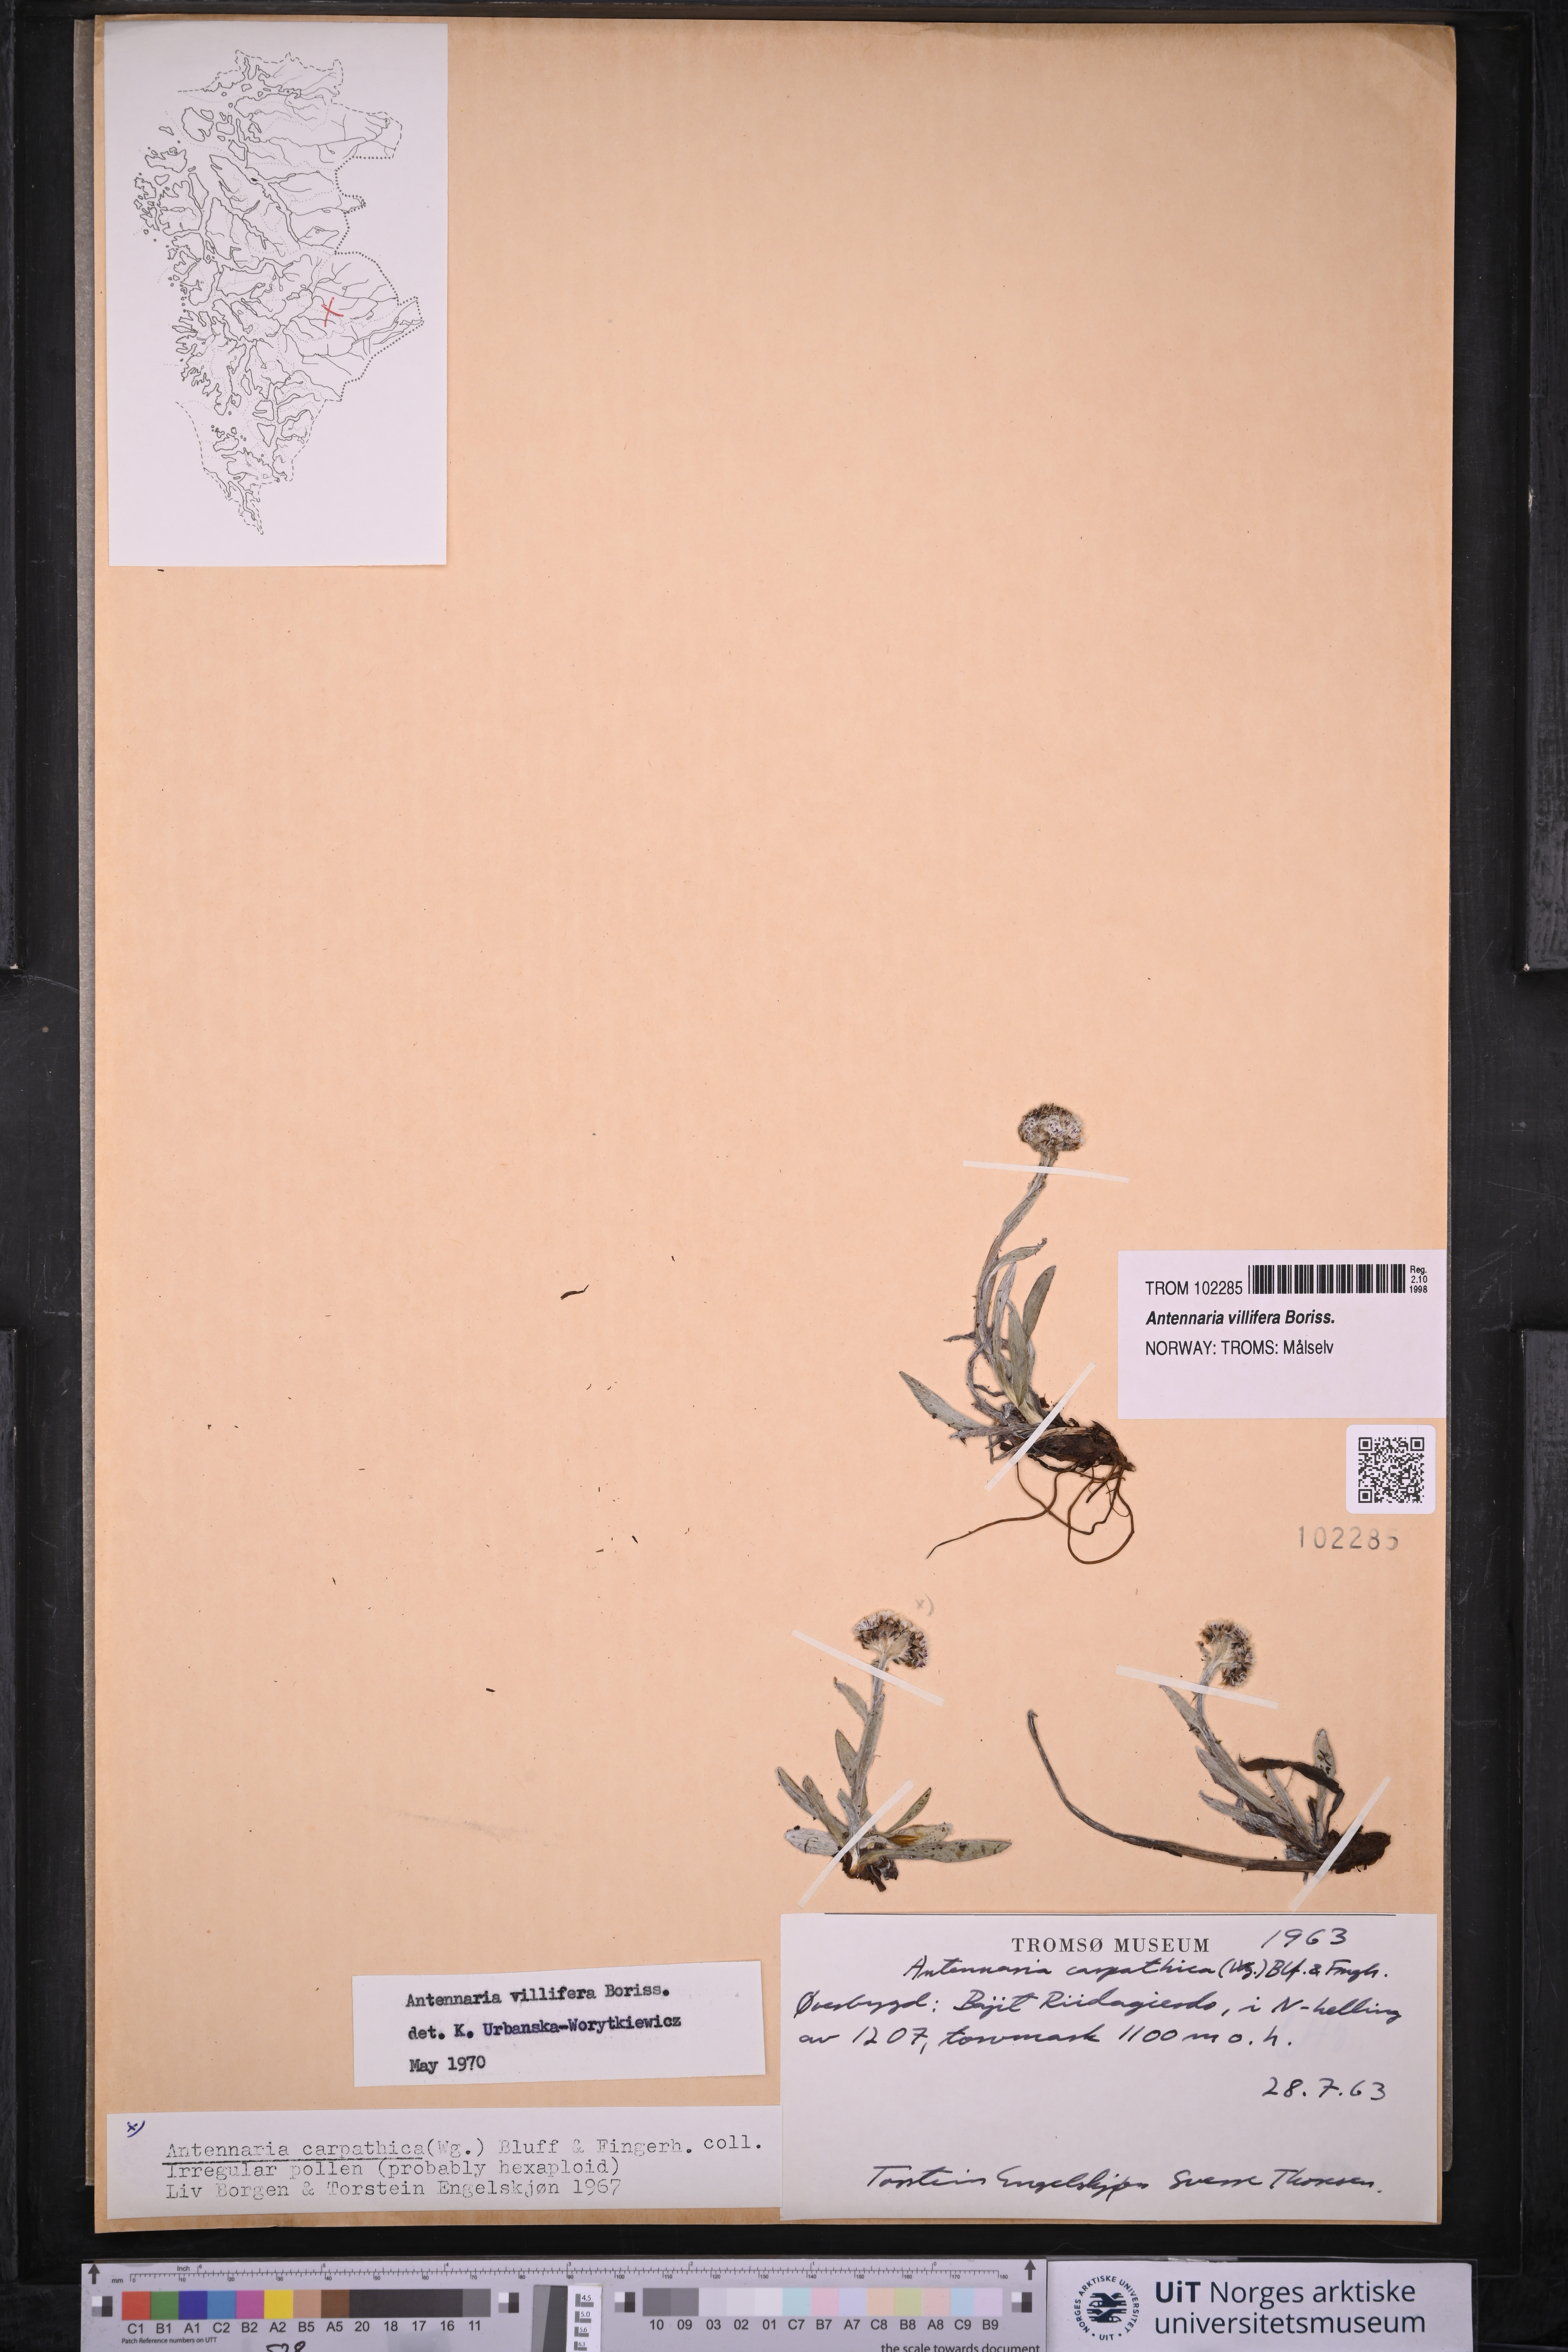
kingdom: Plantae
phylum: Tracheophyta
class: Magnoliopsida
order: Asterales
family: Asteraceae
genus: Antennaria
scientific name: Antennaria lanata
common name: Woolly pussytoes
